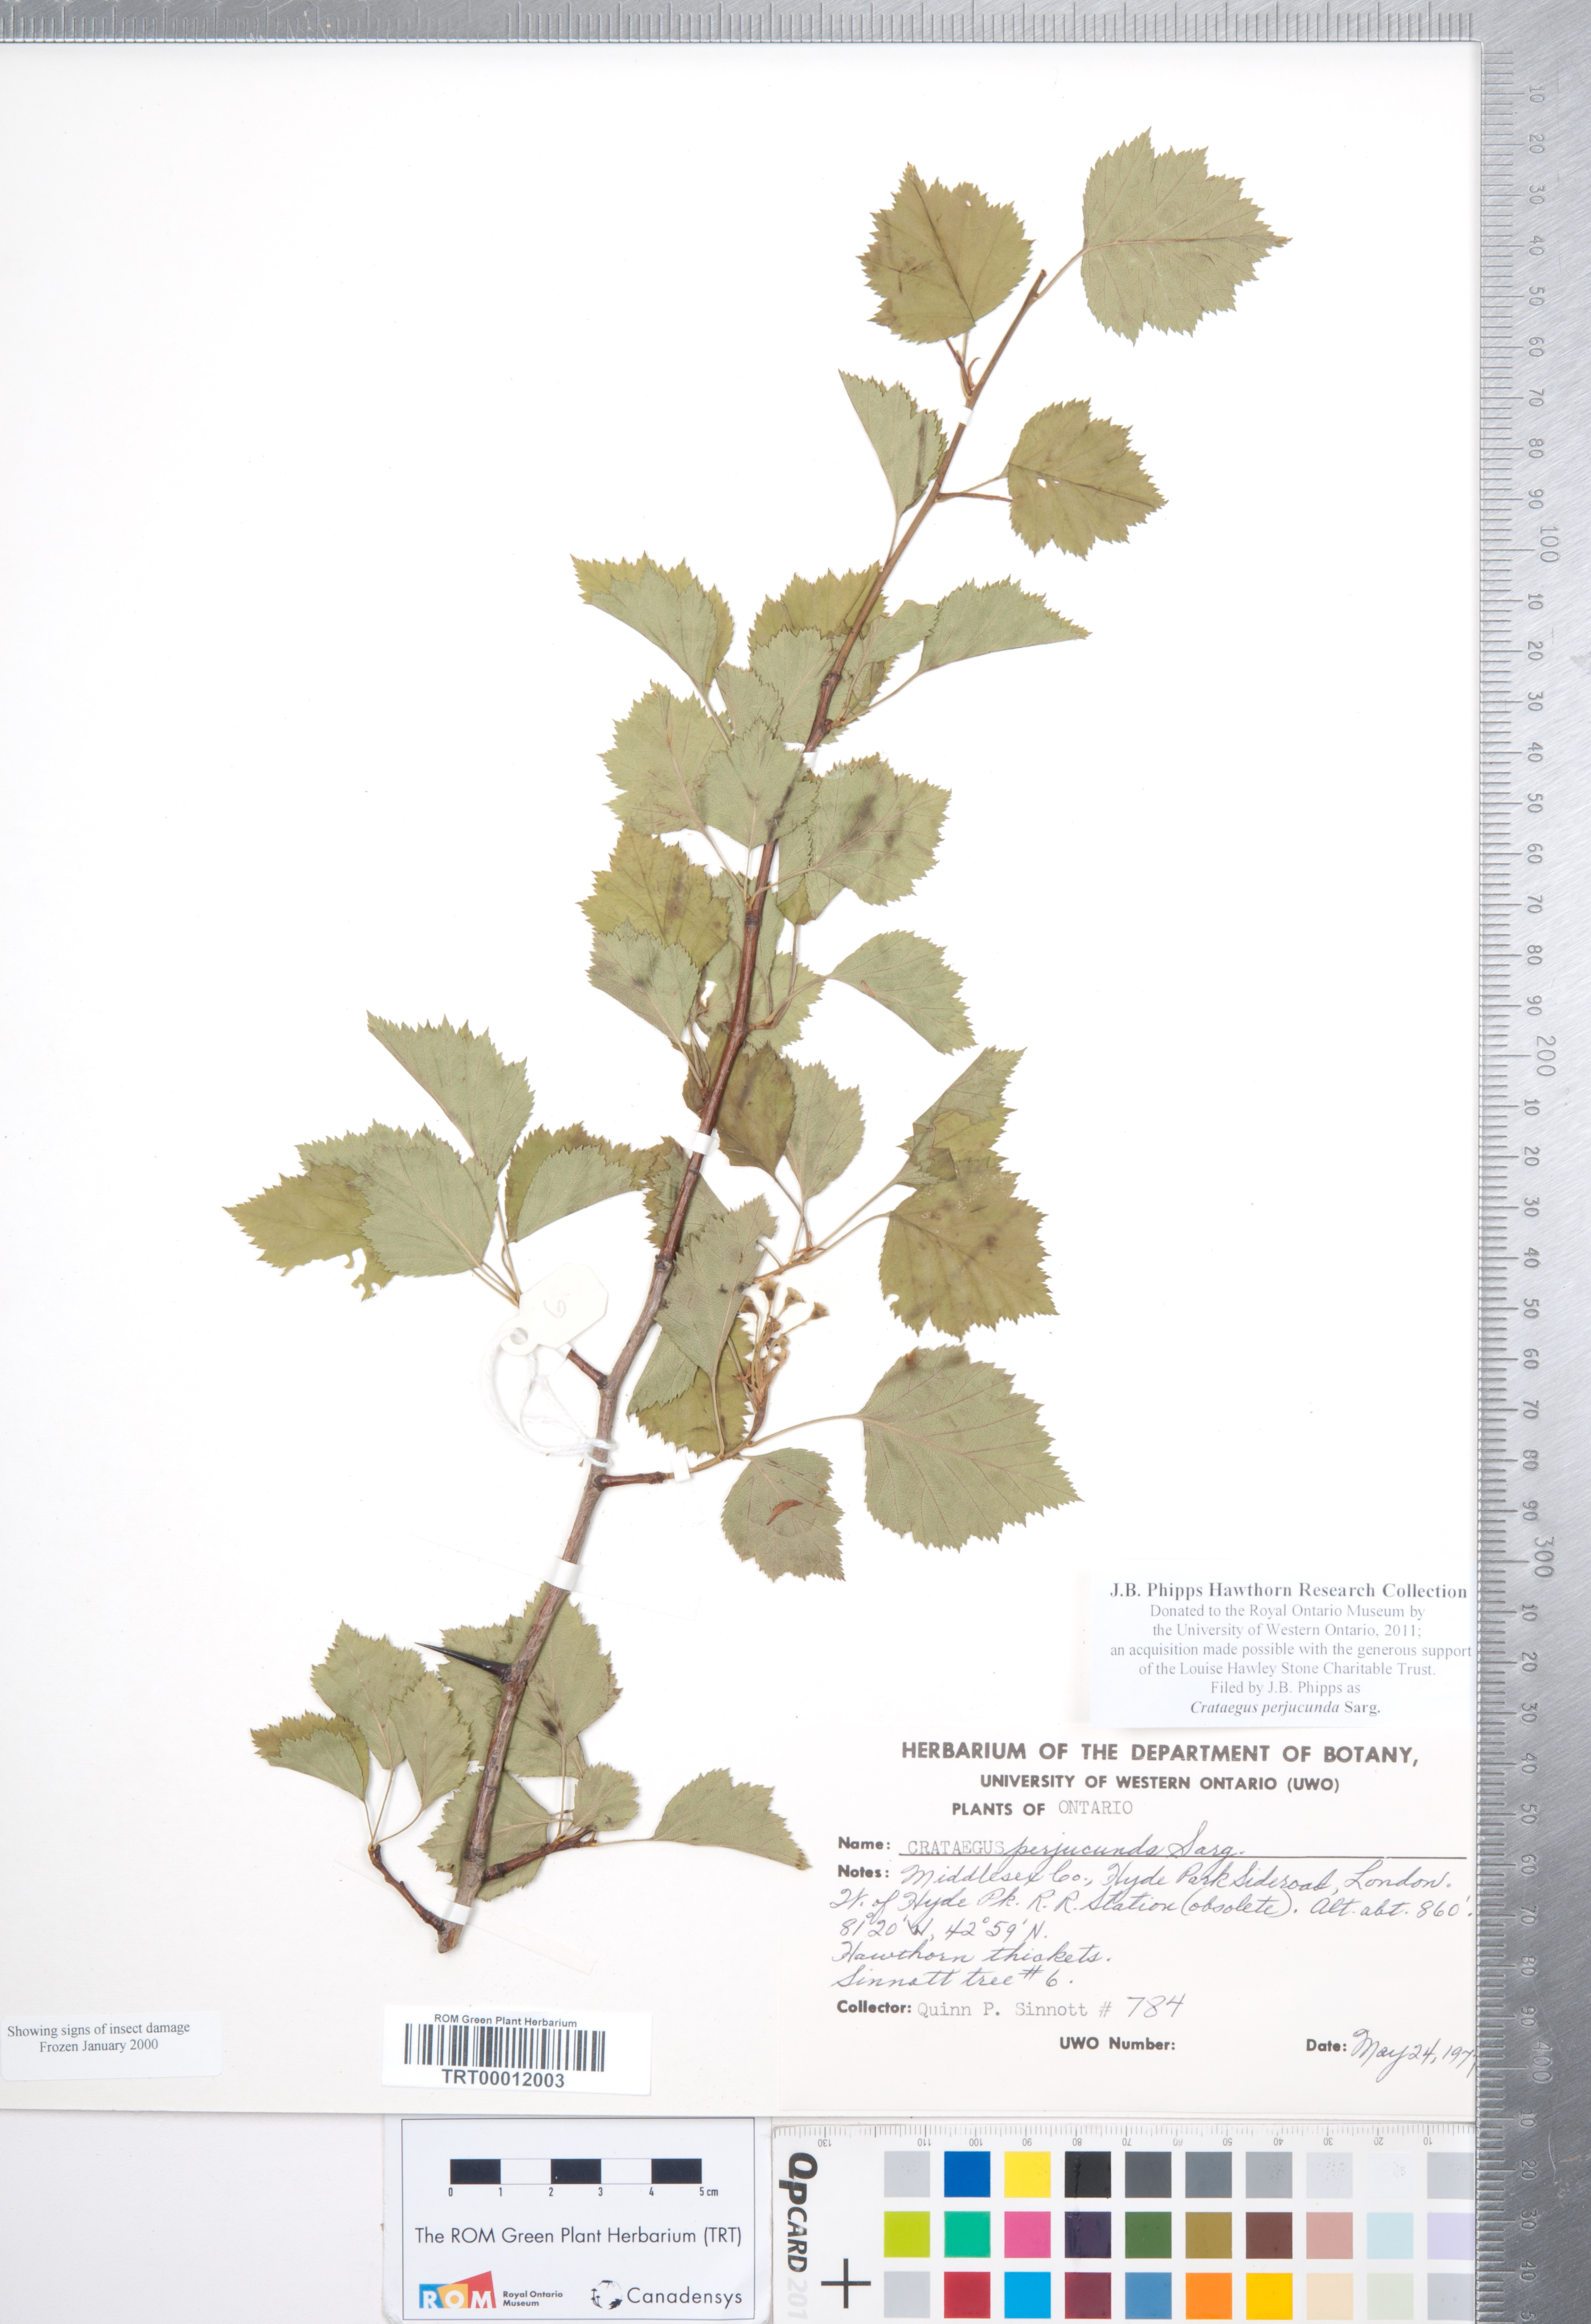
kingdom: Plantae
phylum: Tracheophyta
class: Magnoliopsida
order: Rosales
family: Rosaceae
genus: Crataegus
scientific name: Crataegus cognata
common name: Cognate hawthorn
